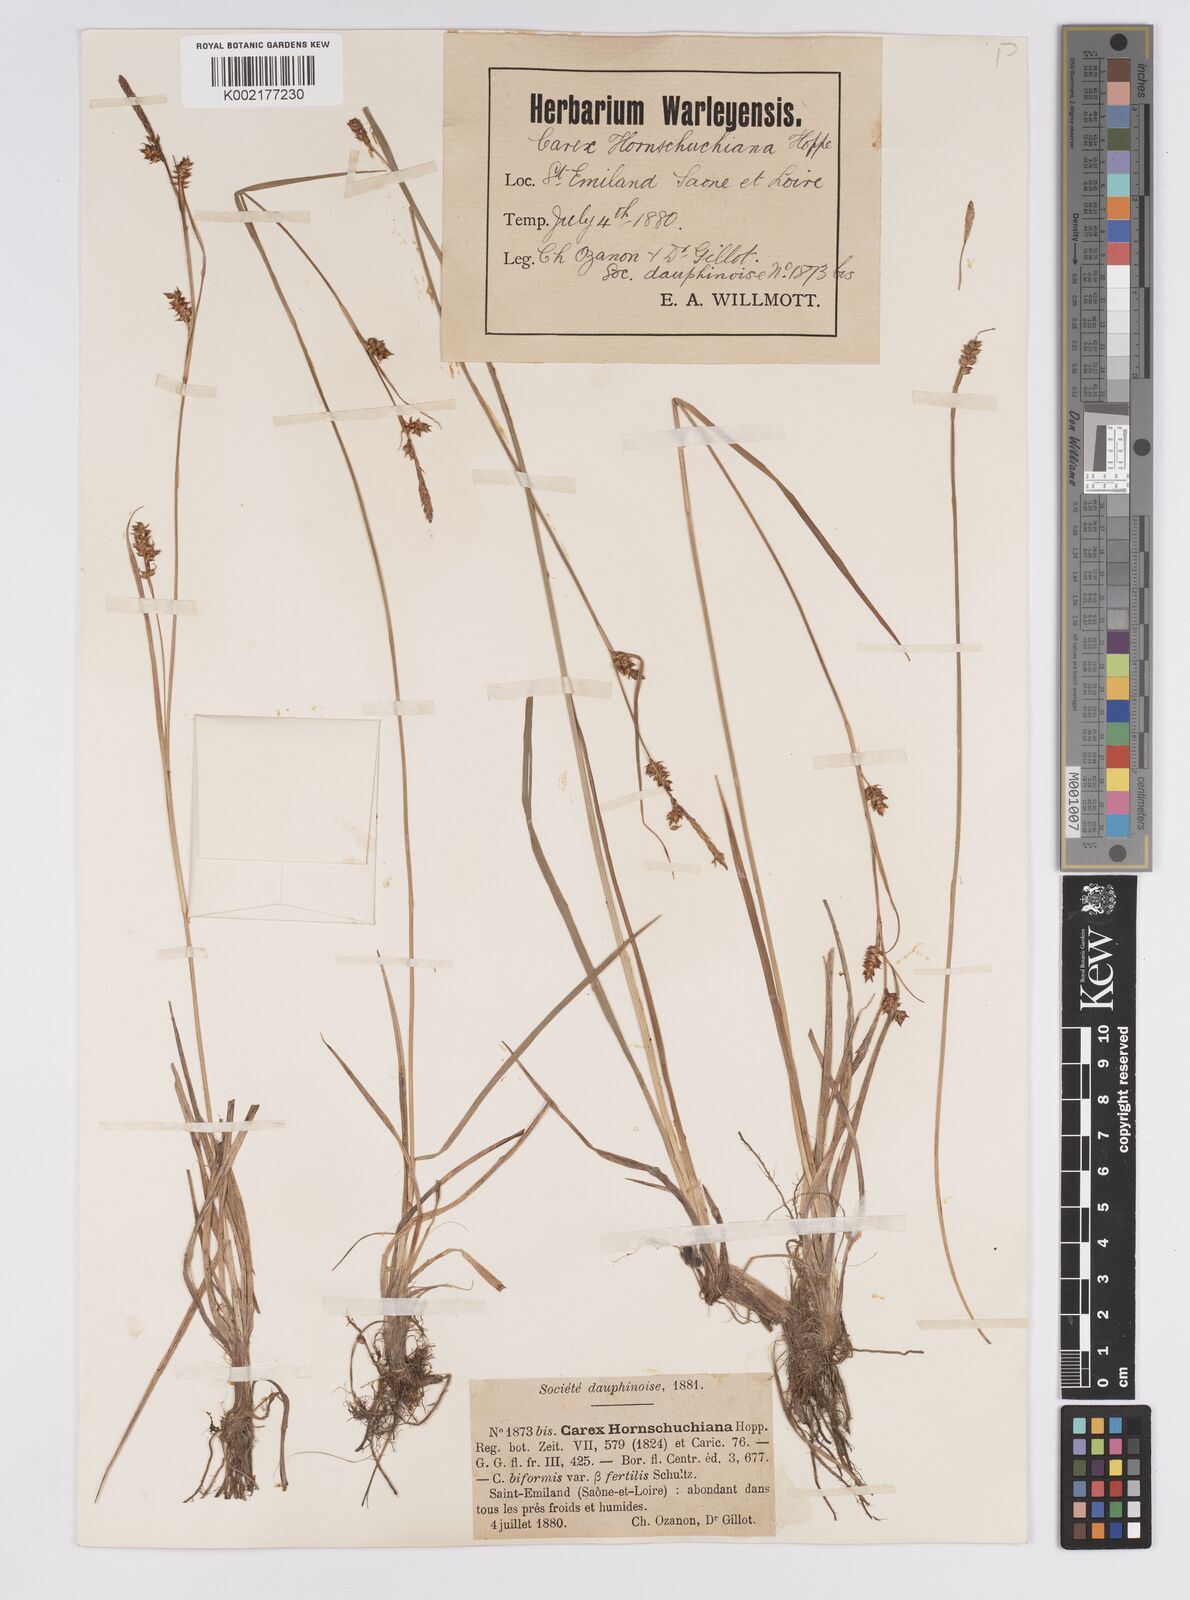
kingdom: Plantae
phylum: Tracheophyta
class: Liliopsida
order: Poales
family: Cyperaceae
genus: Carex
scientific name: Carex hostiana
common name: Tawny sedge
